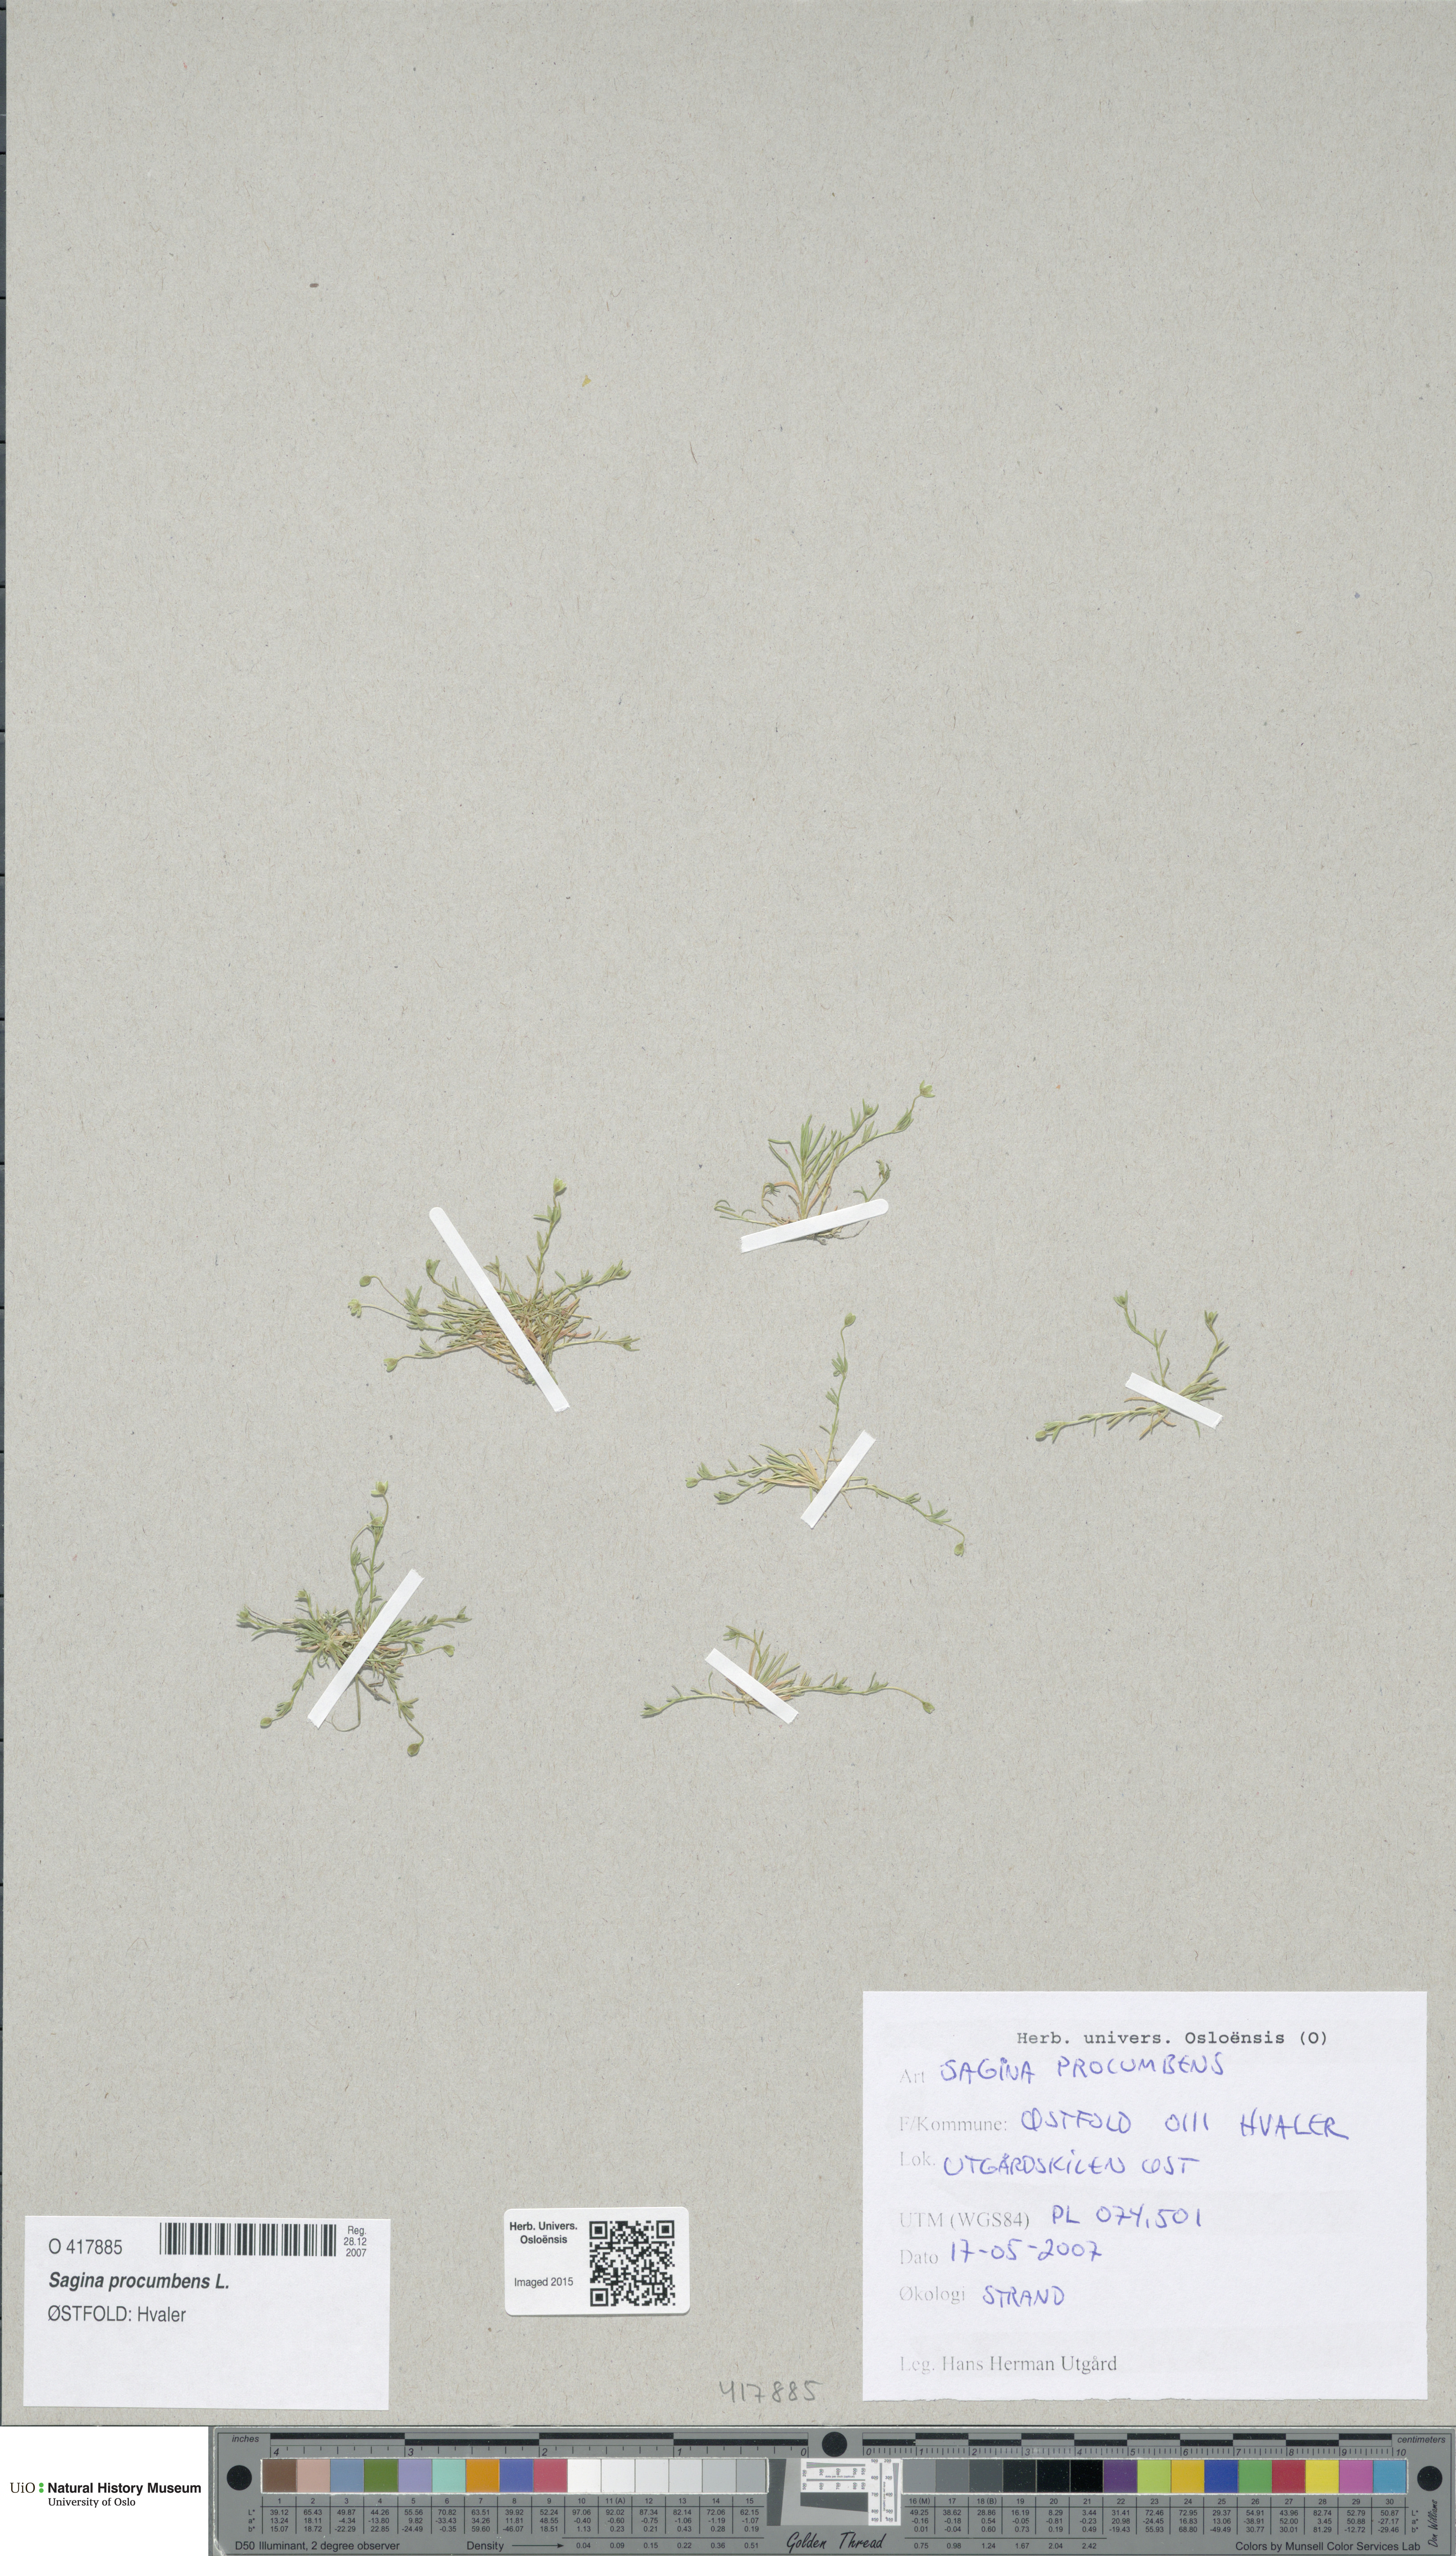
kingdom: Plantae
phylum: Tracheophyta
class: Magnoliopsida
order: Caryophyllales
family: Caryophyllaceae
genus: Sagina
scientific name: Sagina procumbens
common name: Procumbent pearlwort
